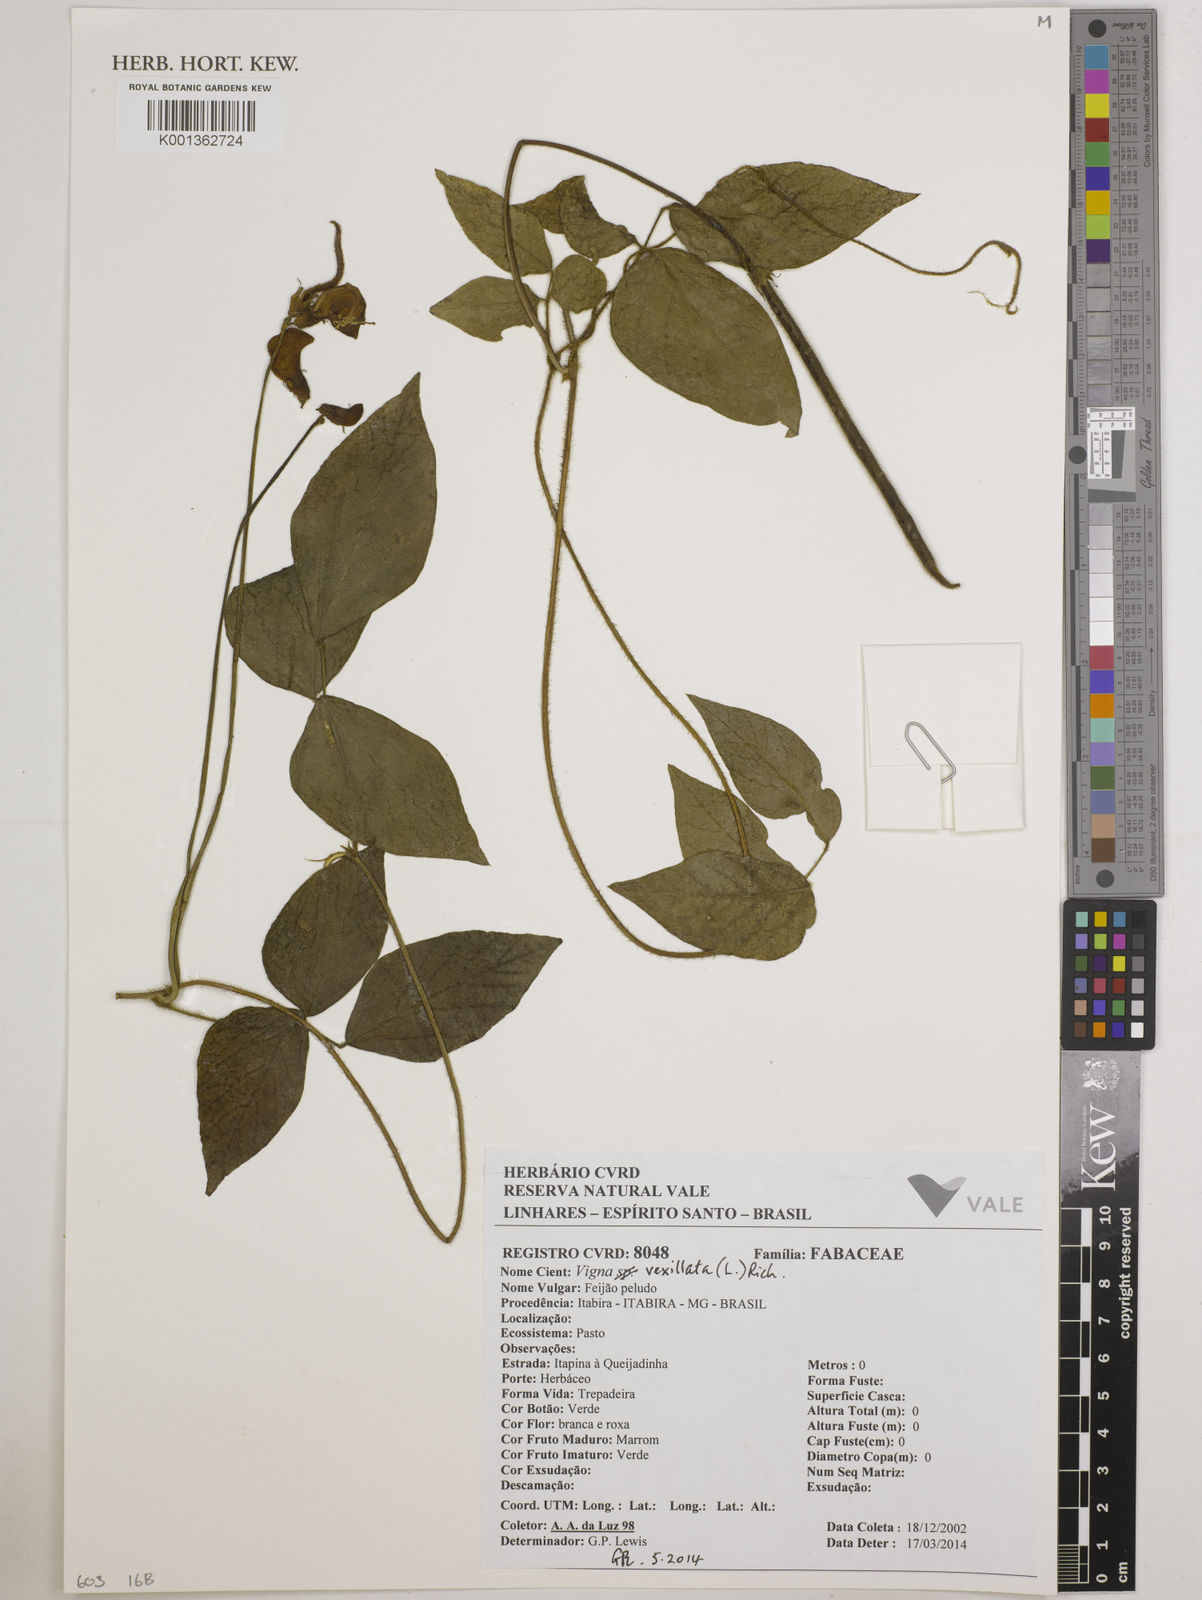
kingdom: Plantae
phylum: Tracheophyta
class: Magnoliopsida
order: Fabales
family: Fabaceae
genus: Vigna
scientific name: Vigna vexillata
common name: Zombi pea
